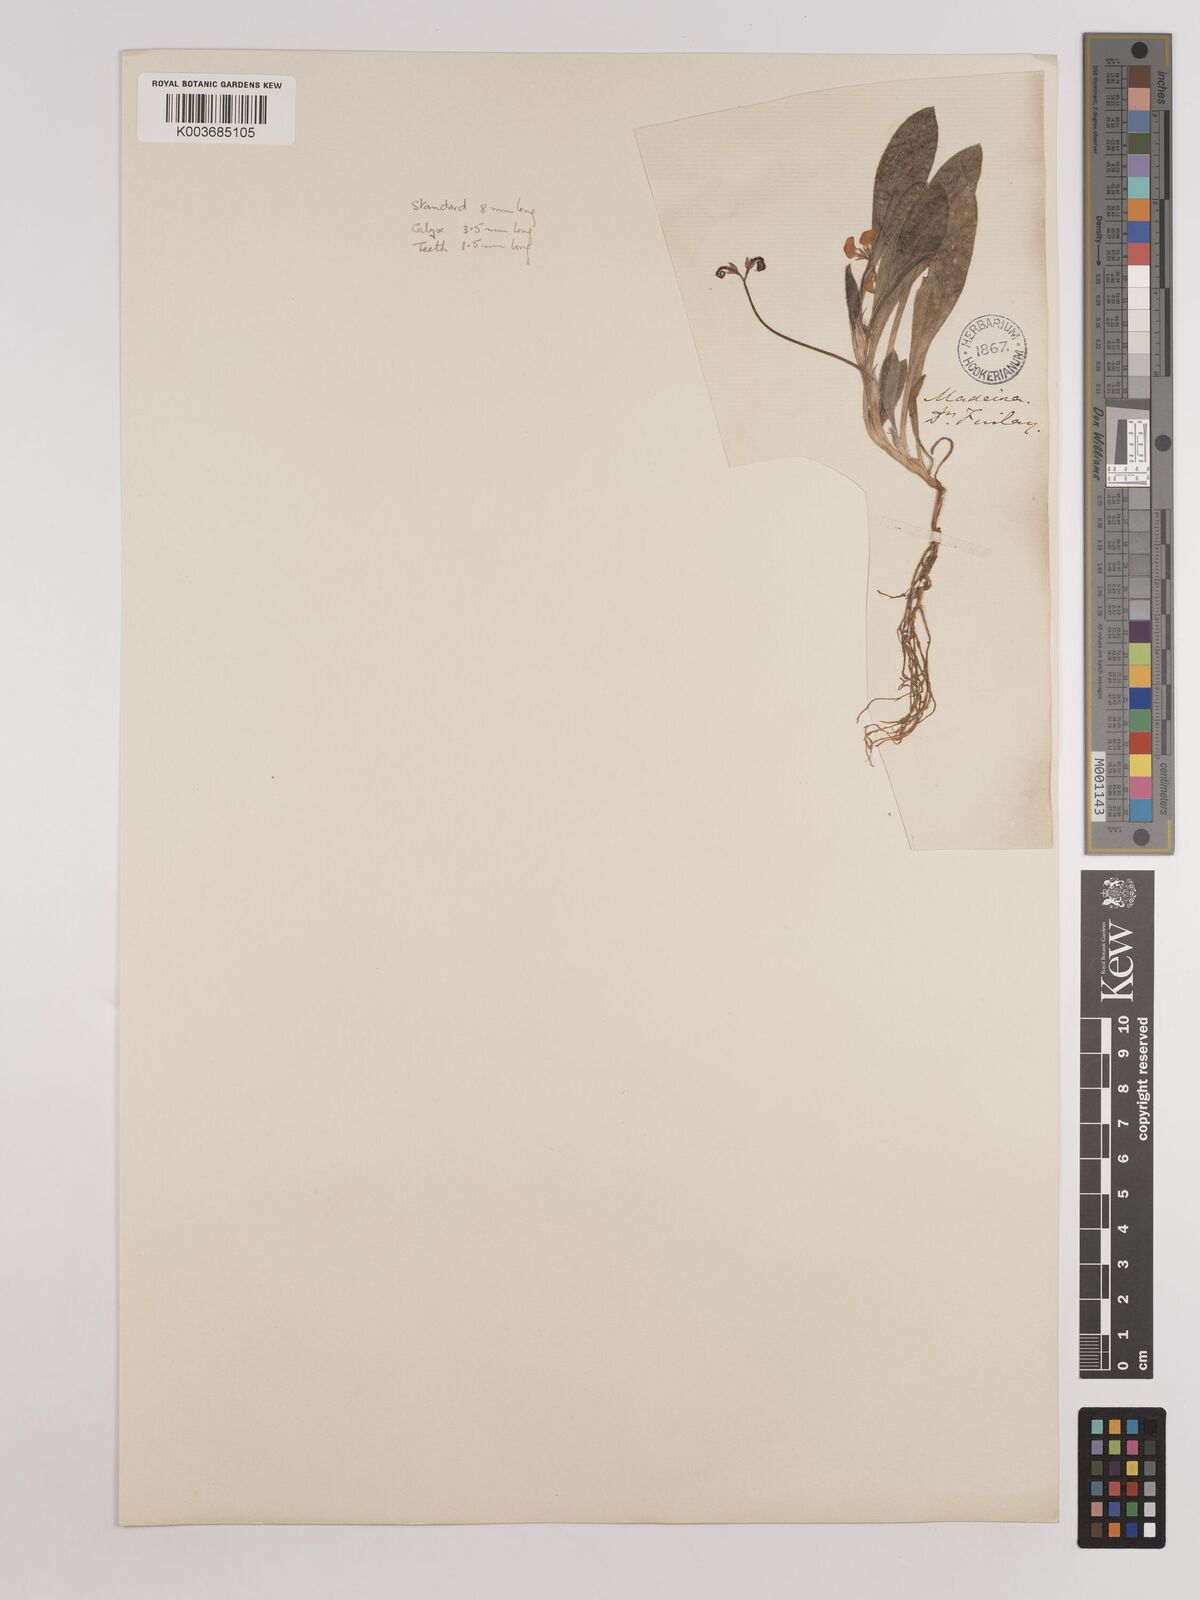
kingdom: Plantae
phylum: Tracheophyta
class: Magnoliopsida
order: Fabales
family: Fabaceae
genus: Scorpiurus
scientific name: Scorpiurus muricatus
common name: Caterpillar-plant
